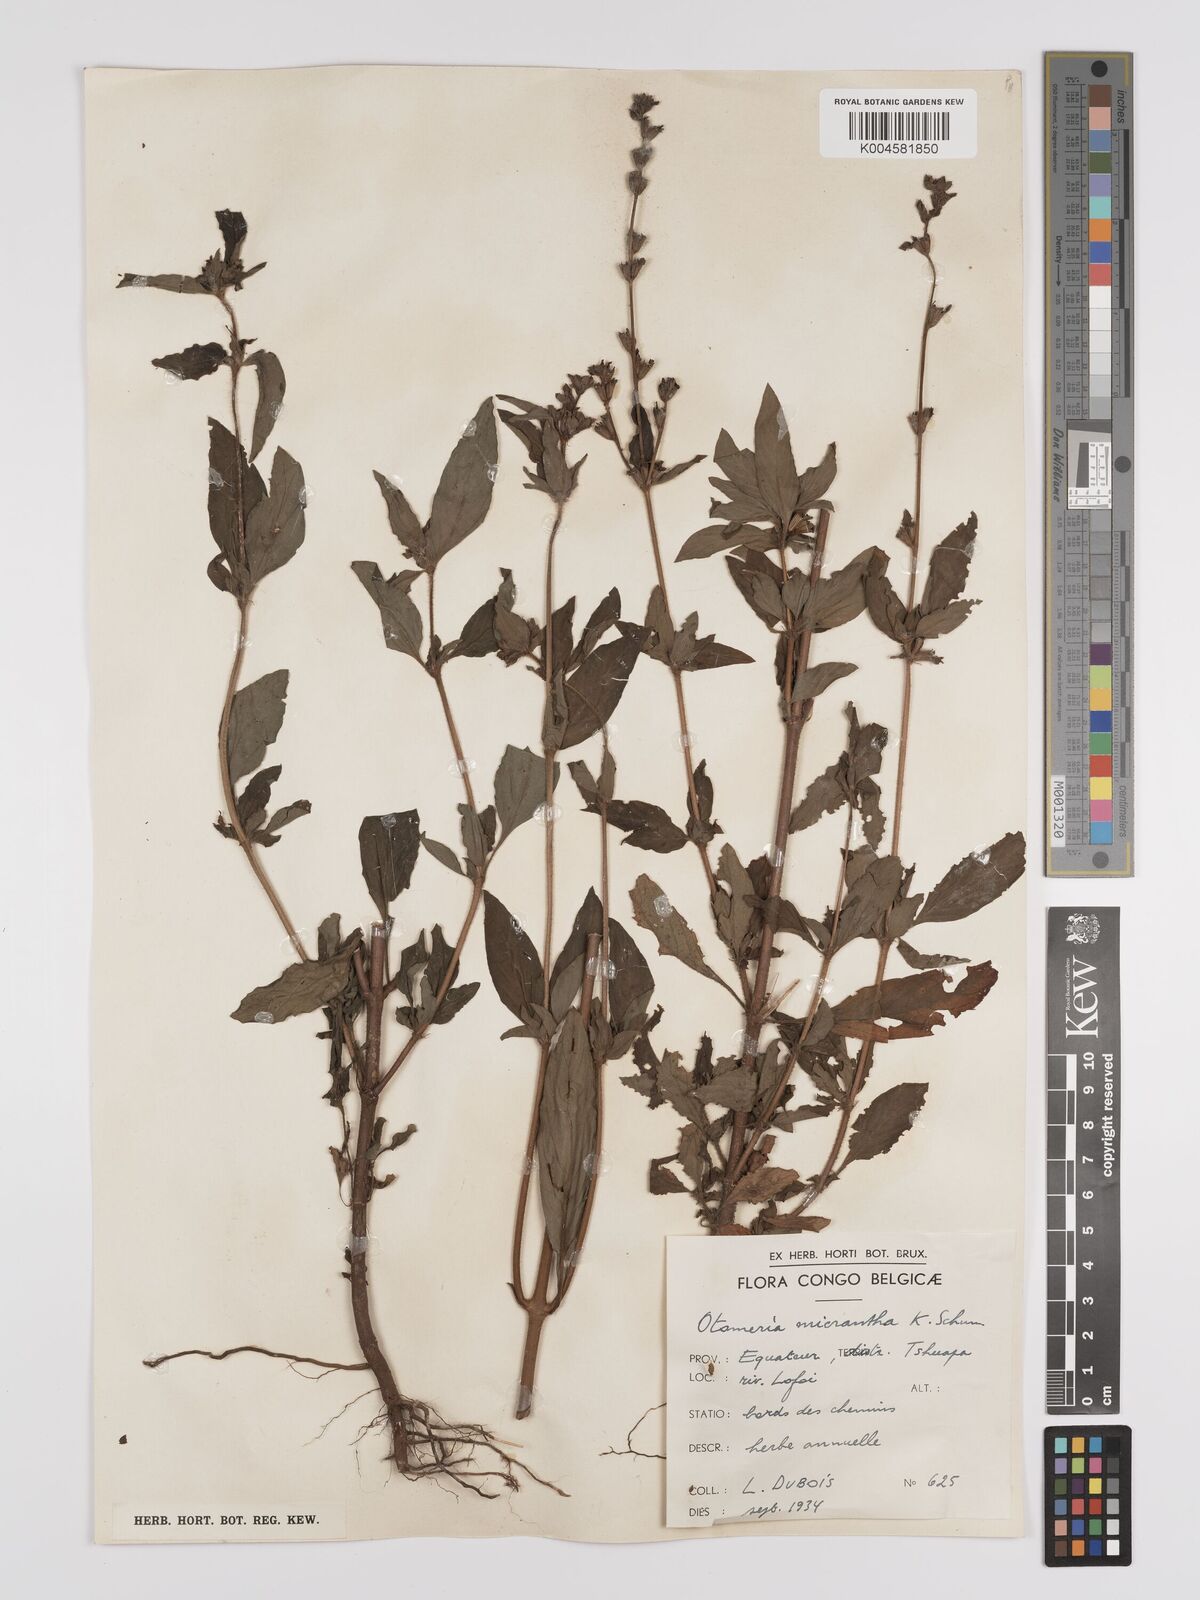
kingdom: Plantae
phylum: Tracheophyta
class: Magnoliopsida
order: Gentianales
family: Rubiaceae
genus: Otomeria
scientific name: Otomeria micrantha
